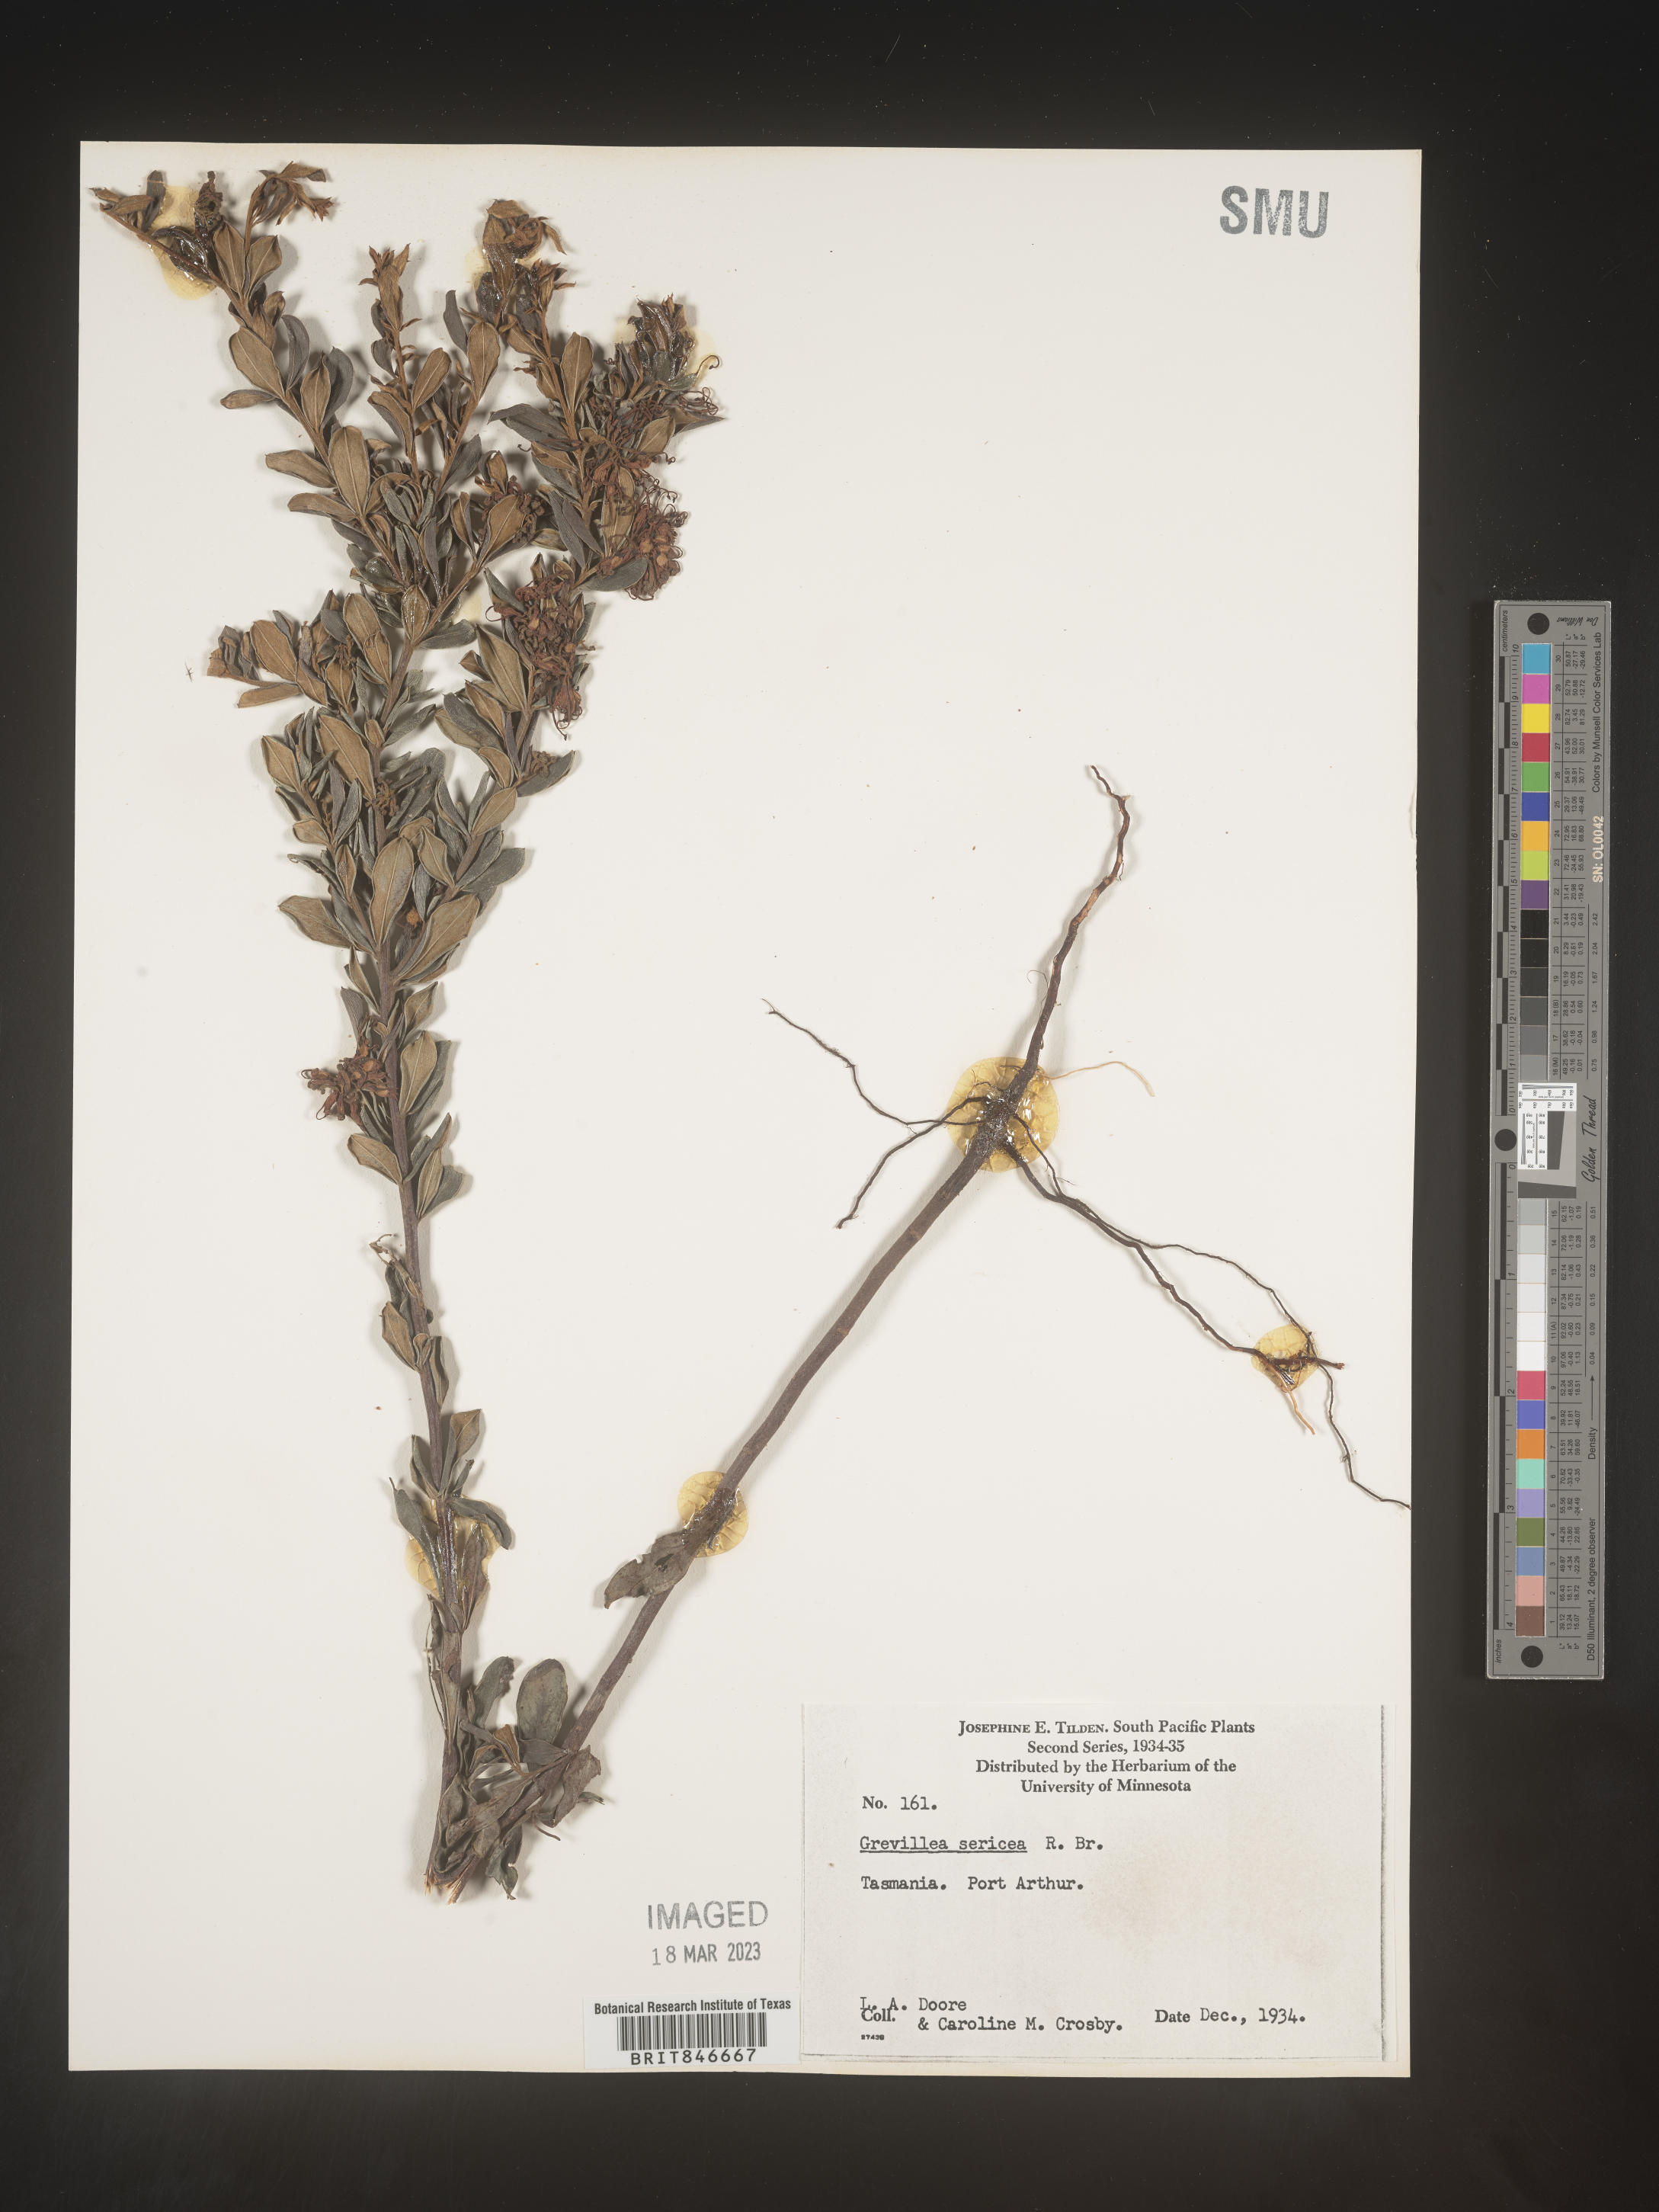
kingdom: Plantae
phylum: Tracheophyta
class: Magnoliopsida
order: Proteales
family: Proteaceae
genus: Grevillea
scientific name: Grevillea
